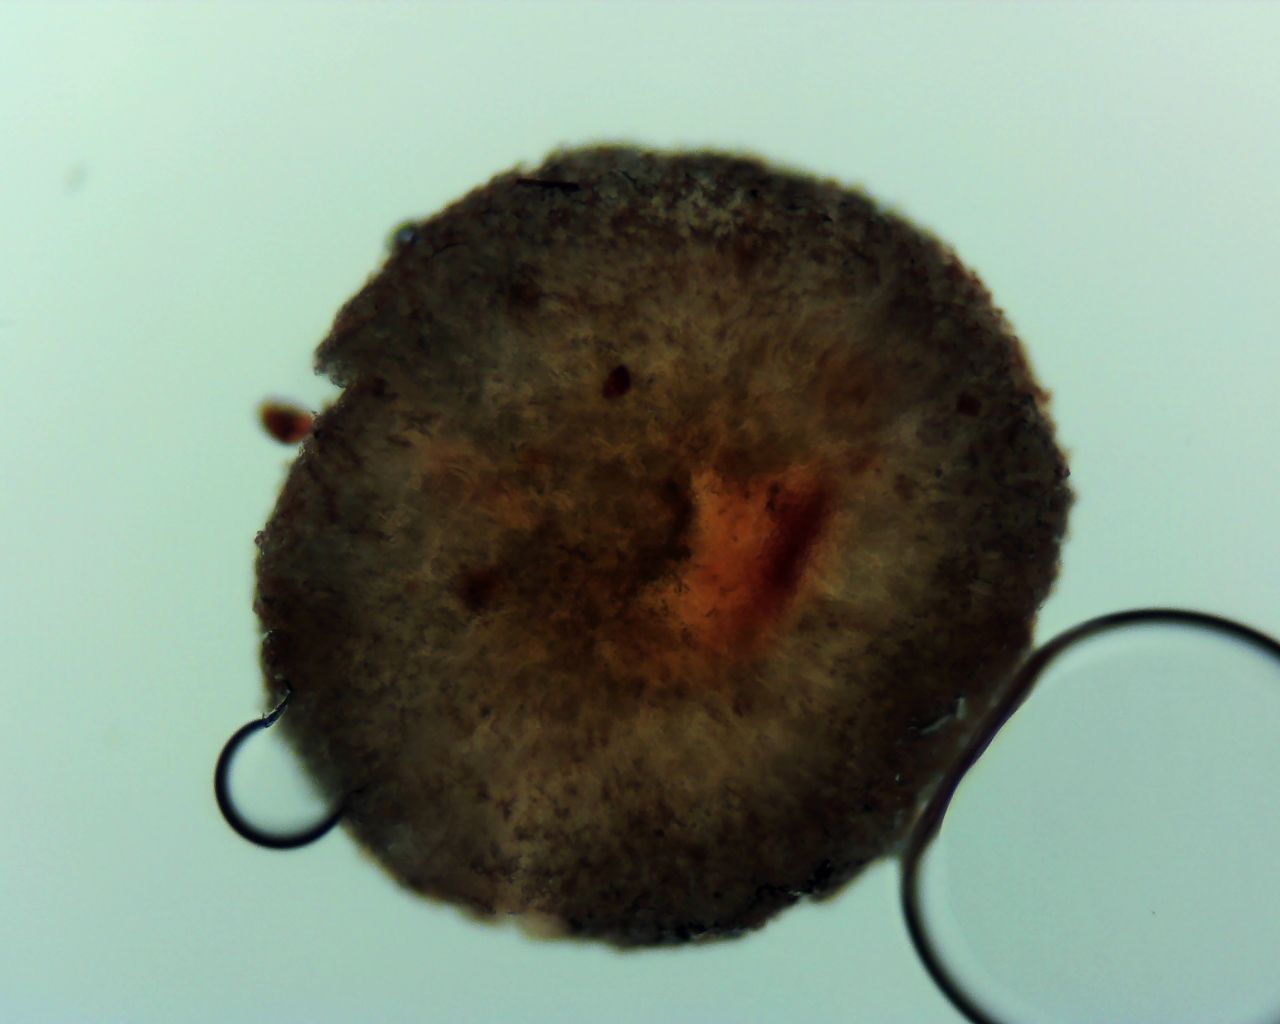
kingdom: Fungi
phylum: Ascomycota
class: Leotiomycetes
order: Helotiales
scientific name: Helotiales
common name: stilkskiveordenen
